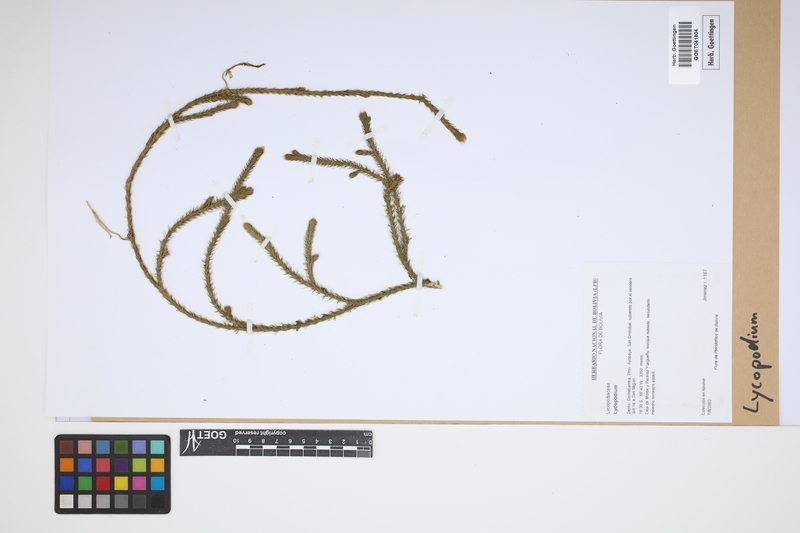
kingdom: Plantae
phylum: Tracheophyta
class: Lycopodiopsida
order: Lycopodiales
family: Lycopodiaceae
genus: Lycopodium
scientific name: Lycopodium
